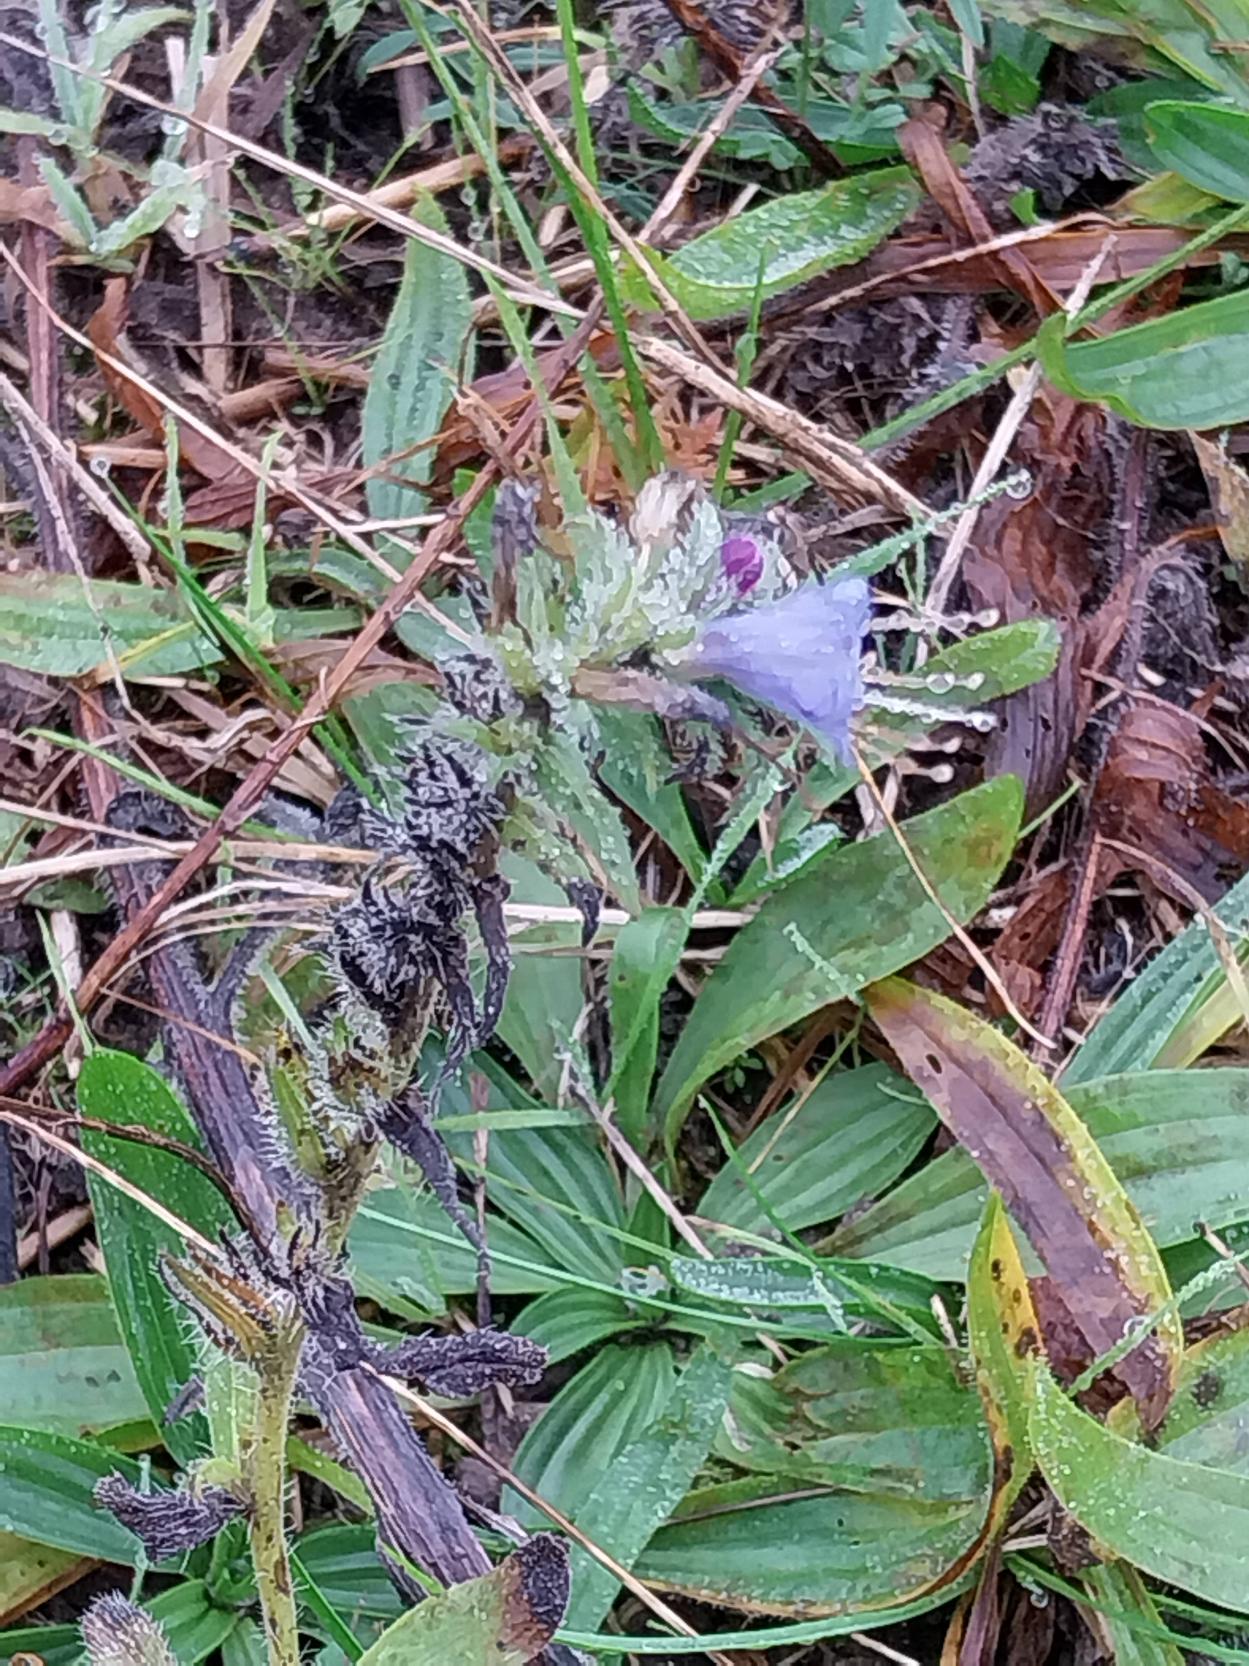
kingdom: Plantae
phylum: Tracheophyta
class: Magnoliopsida
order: Boraginales
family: Boraginaceae
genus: Echium
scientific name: Echium vulgare
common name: Slangehoved
